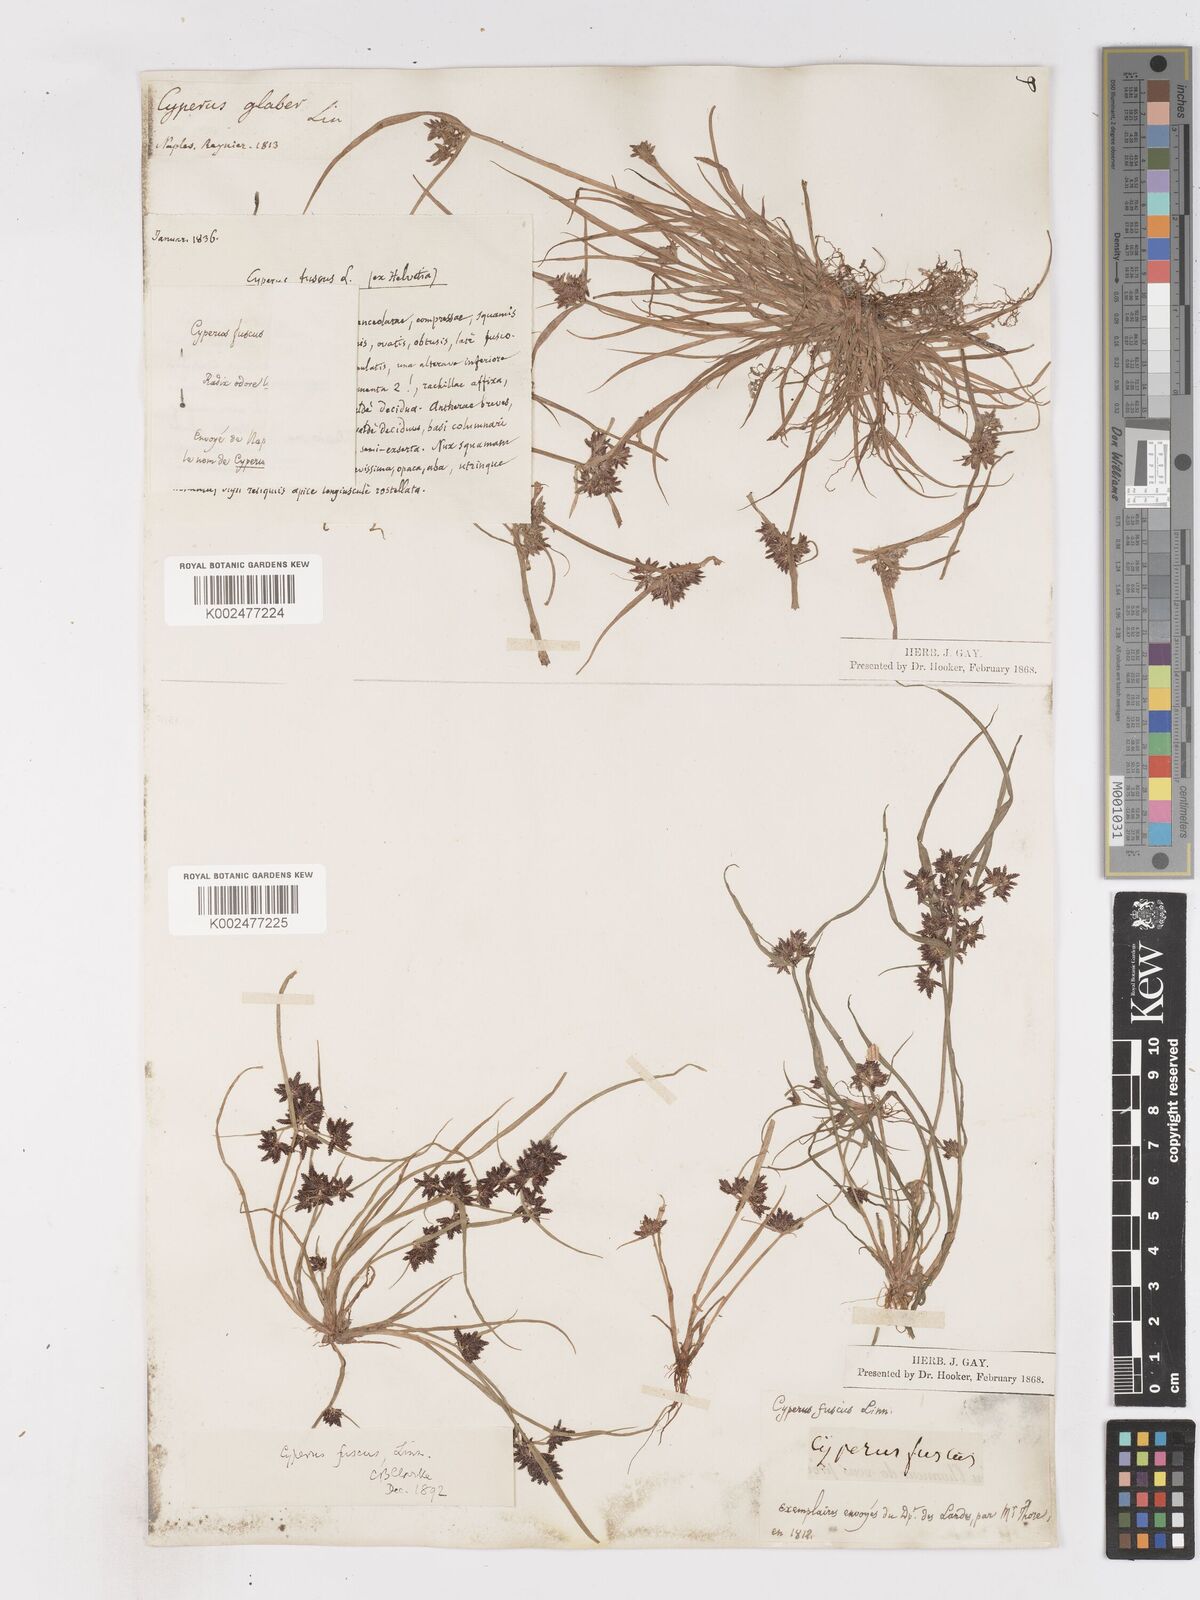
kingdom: Plantae
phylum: Tracheophyta
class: Liliopsida
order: Poales
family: Cyperaceae
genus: Cyperus
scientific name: Cyperus fuscus
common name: Brown galingale
